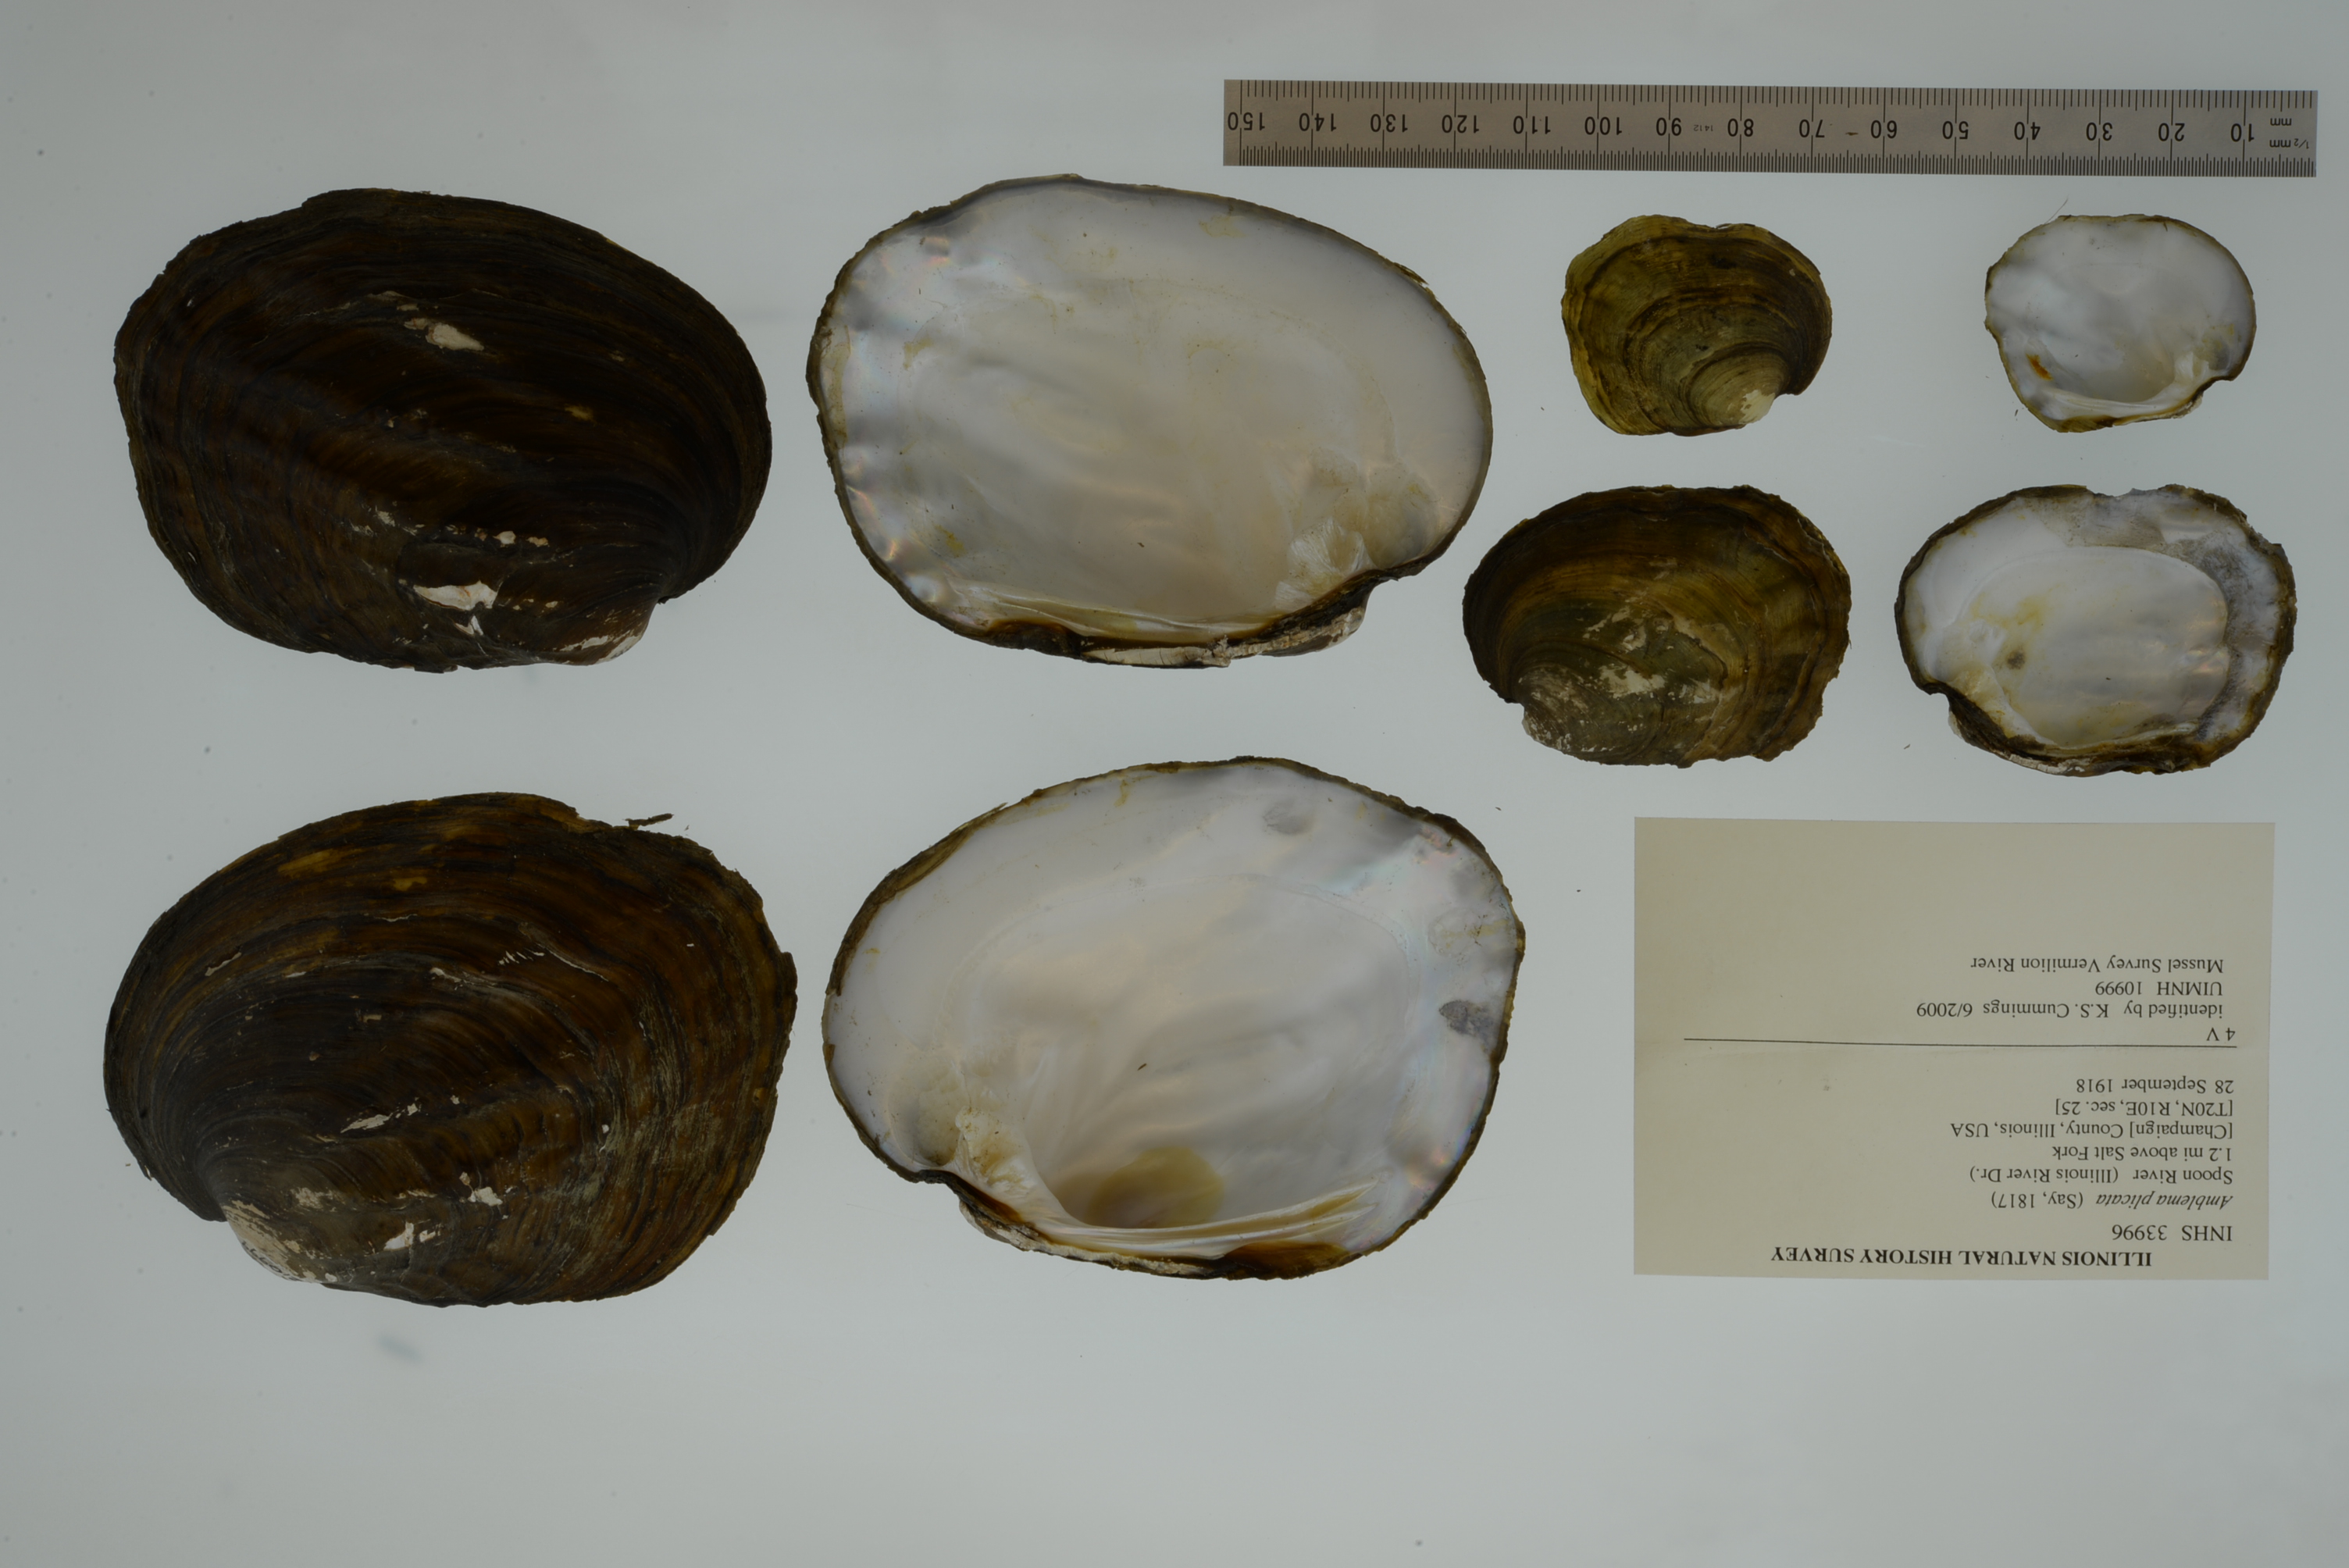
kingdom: Animalia
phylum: Mollusca
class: Bivalvia
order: Unionida
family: Unionidae
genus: Amblema
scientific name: Amblema plicata
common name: Threeridge
